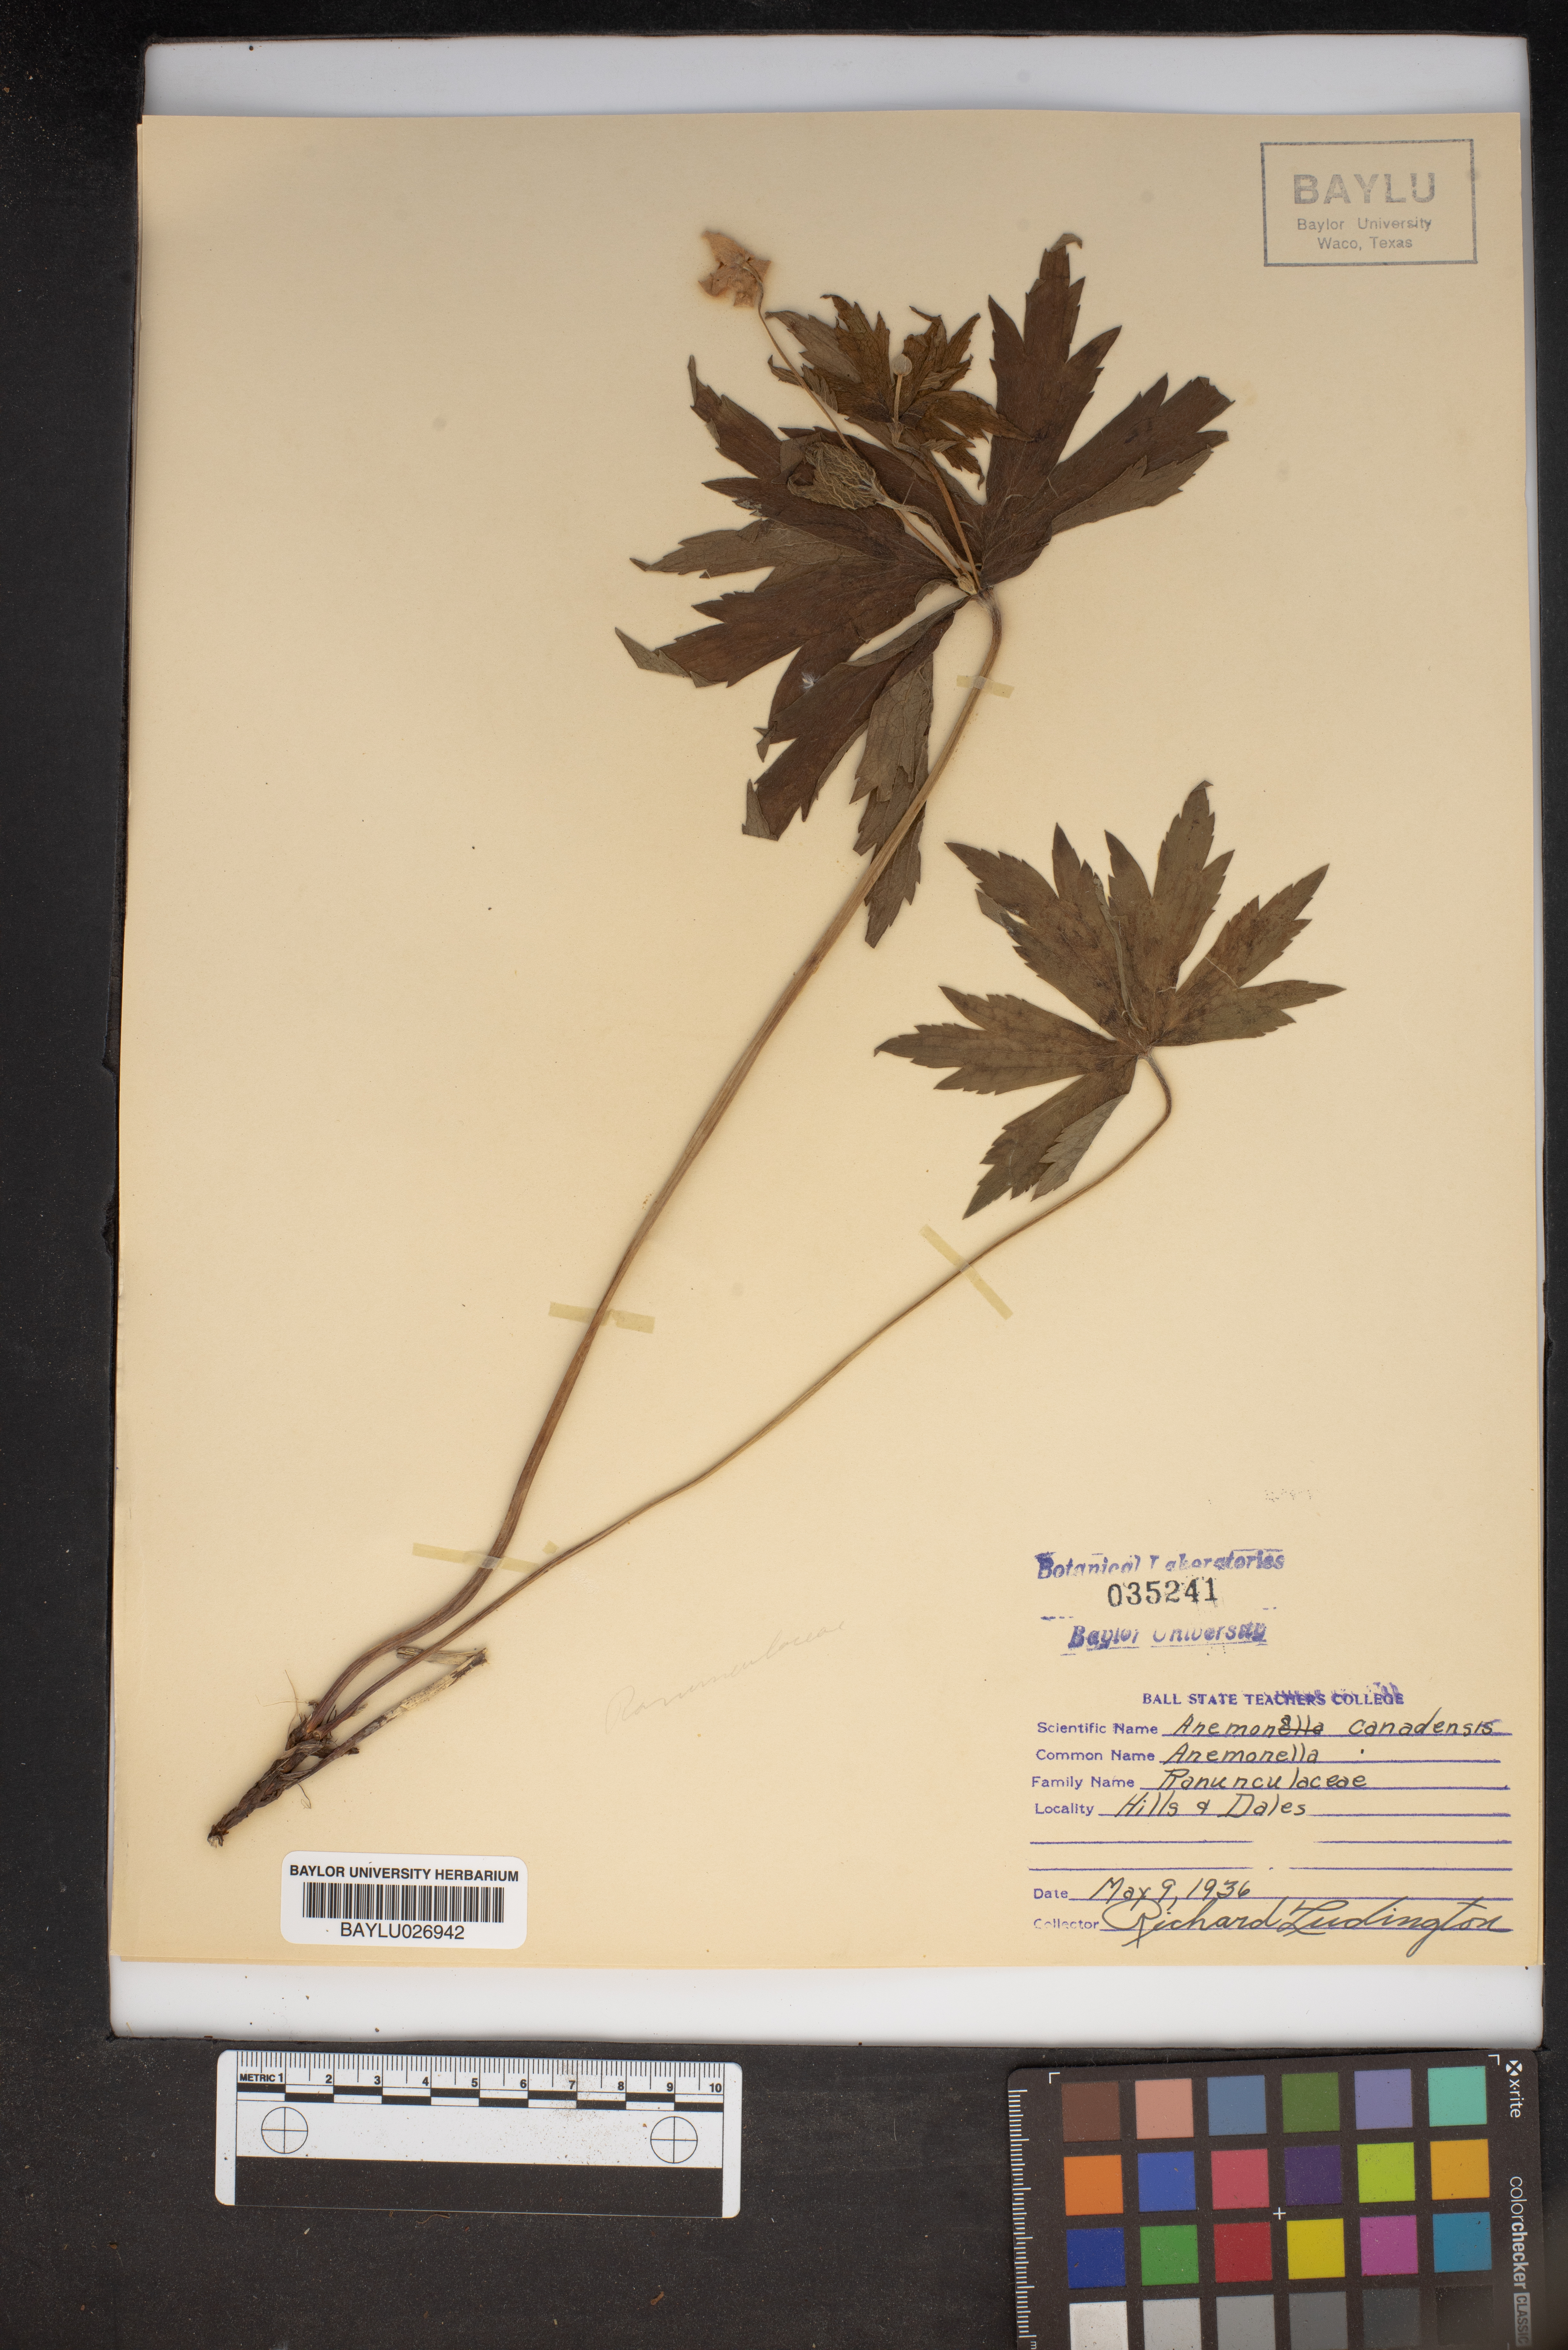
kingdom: Plantae
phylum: Tracheophyta
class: Magnoliopsida
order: Ranunculales
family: Ranunculaceae
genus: Anemonastrum
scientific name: Anemonastrum canadense
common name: Canada anemone
